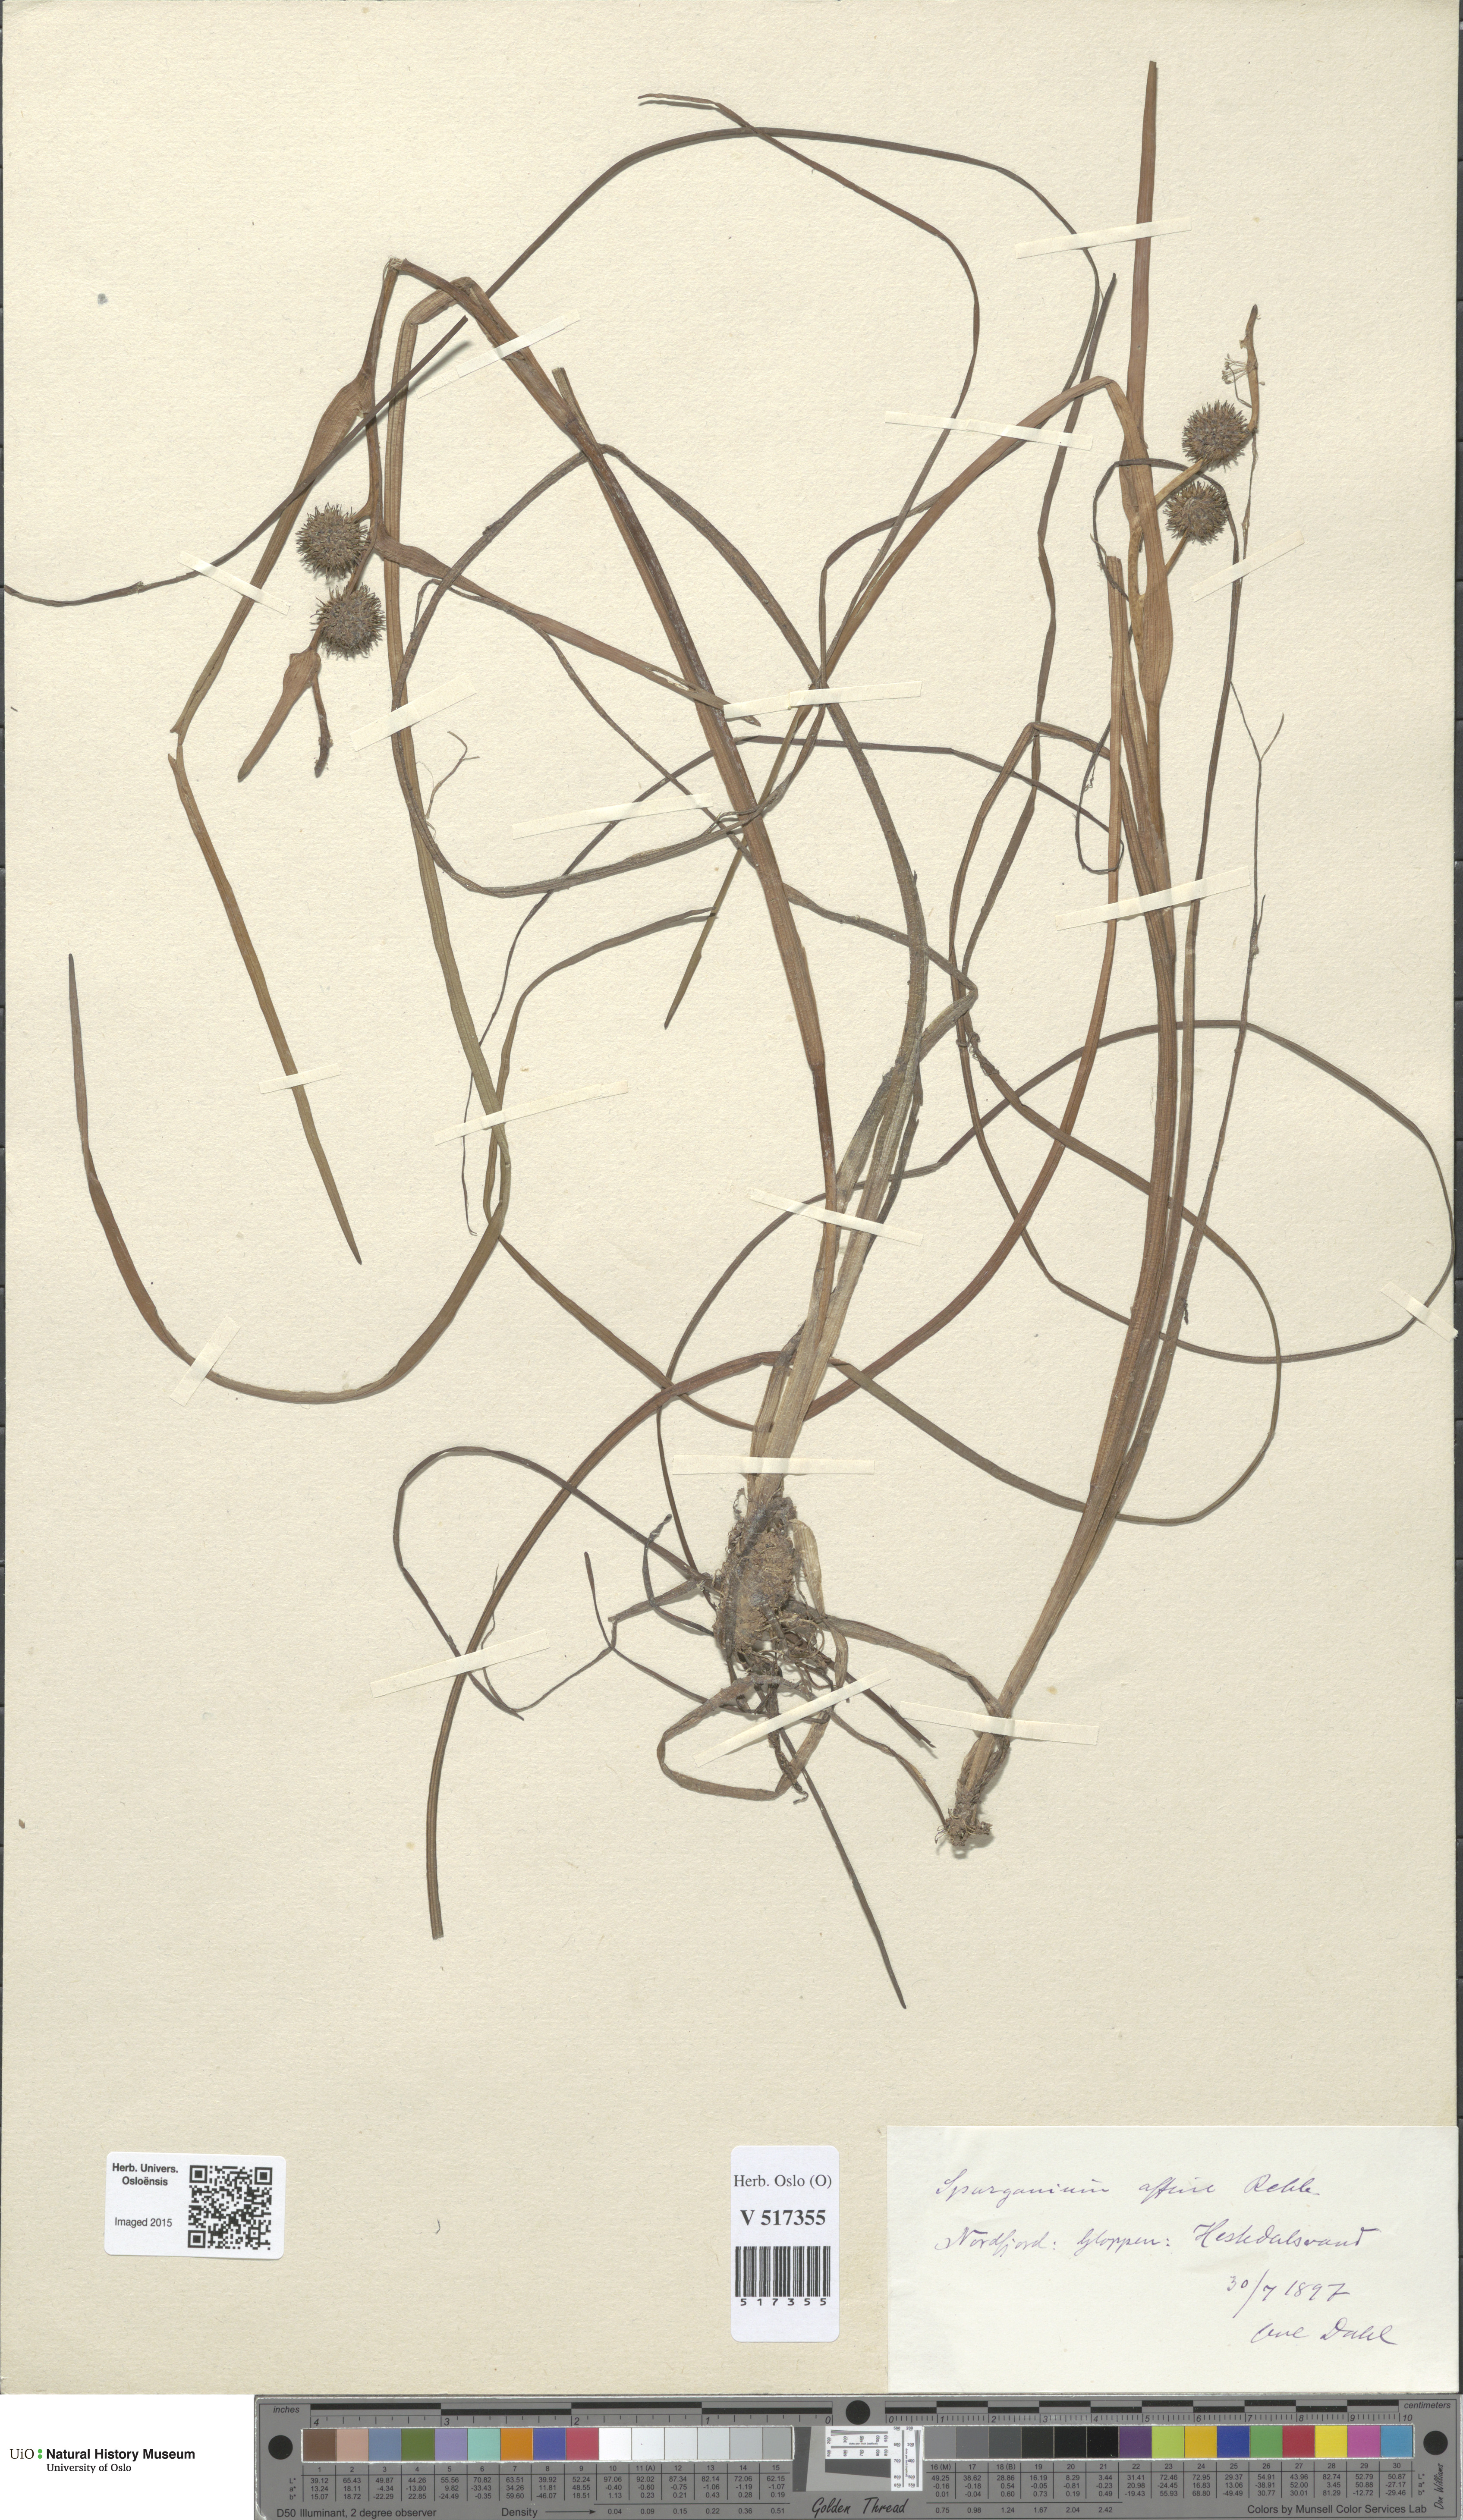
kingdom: Plantae
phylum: Tracheophyta
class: Liliopsida
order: Poales
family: Typhaceae
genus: Sparganium
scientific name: Sparganium angustifolium
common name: Floating bur-reed
